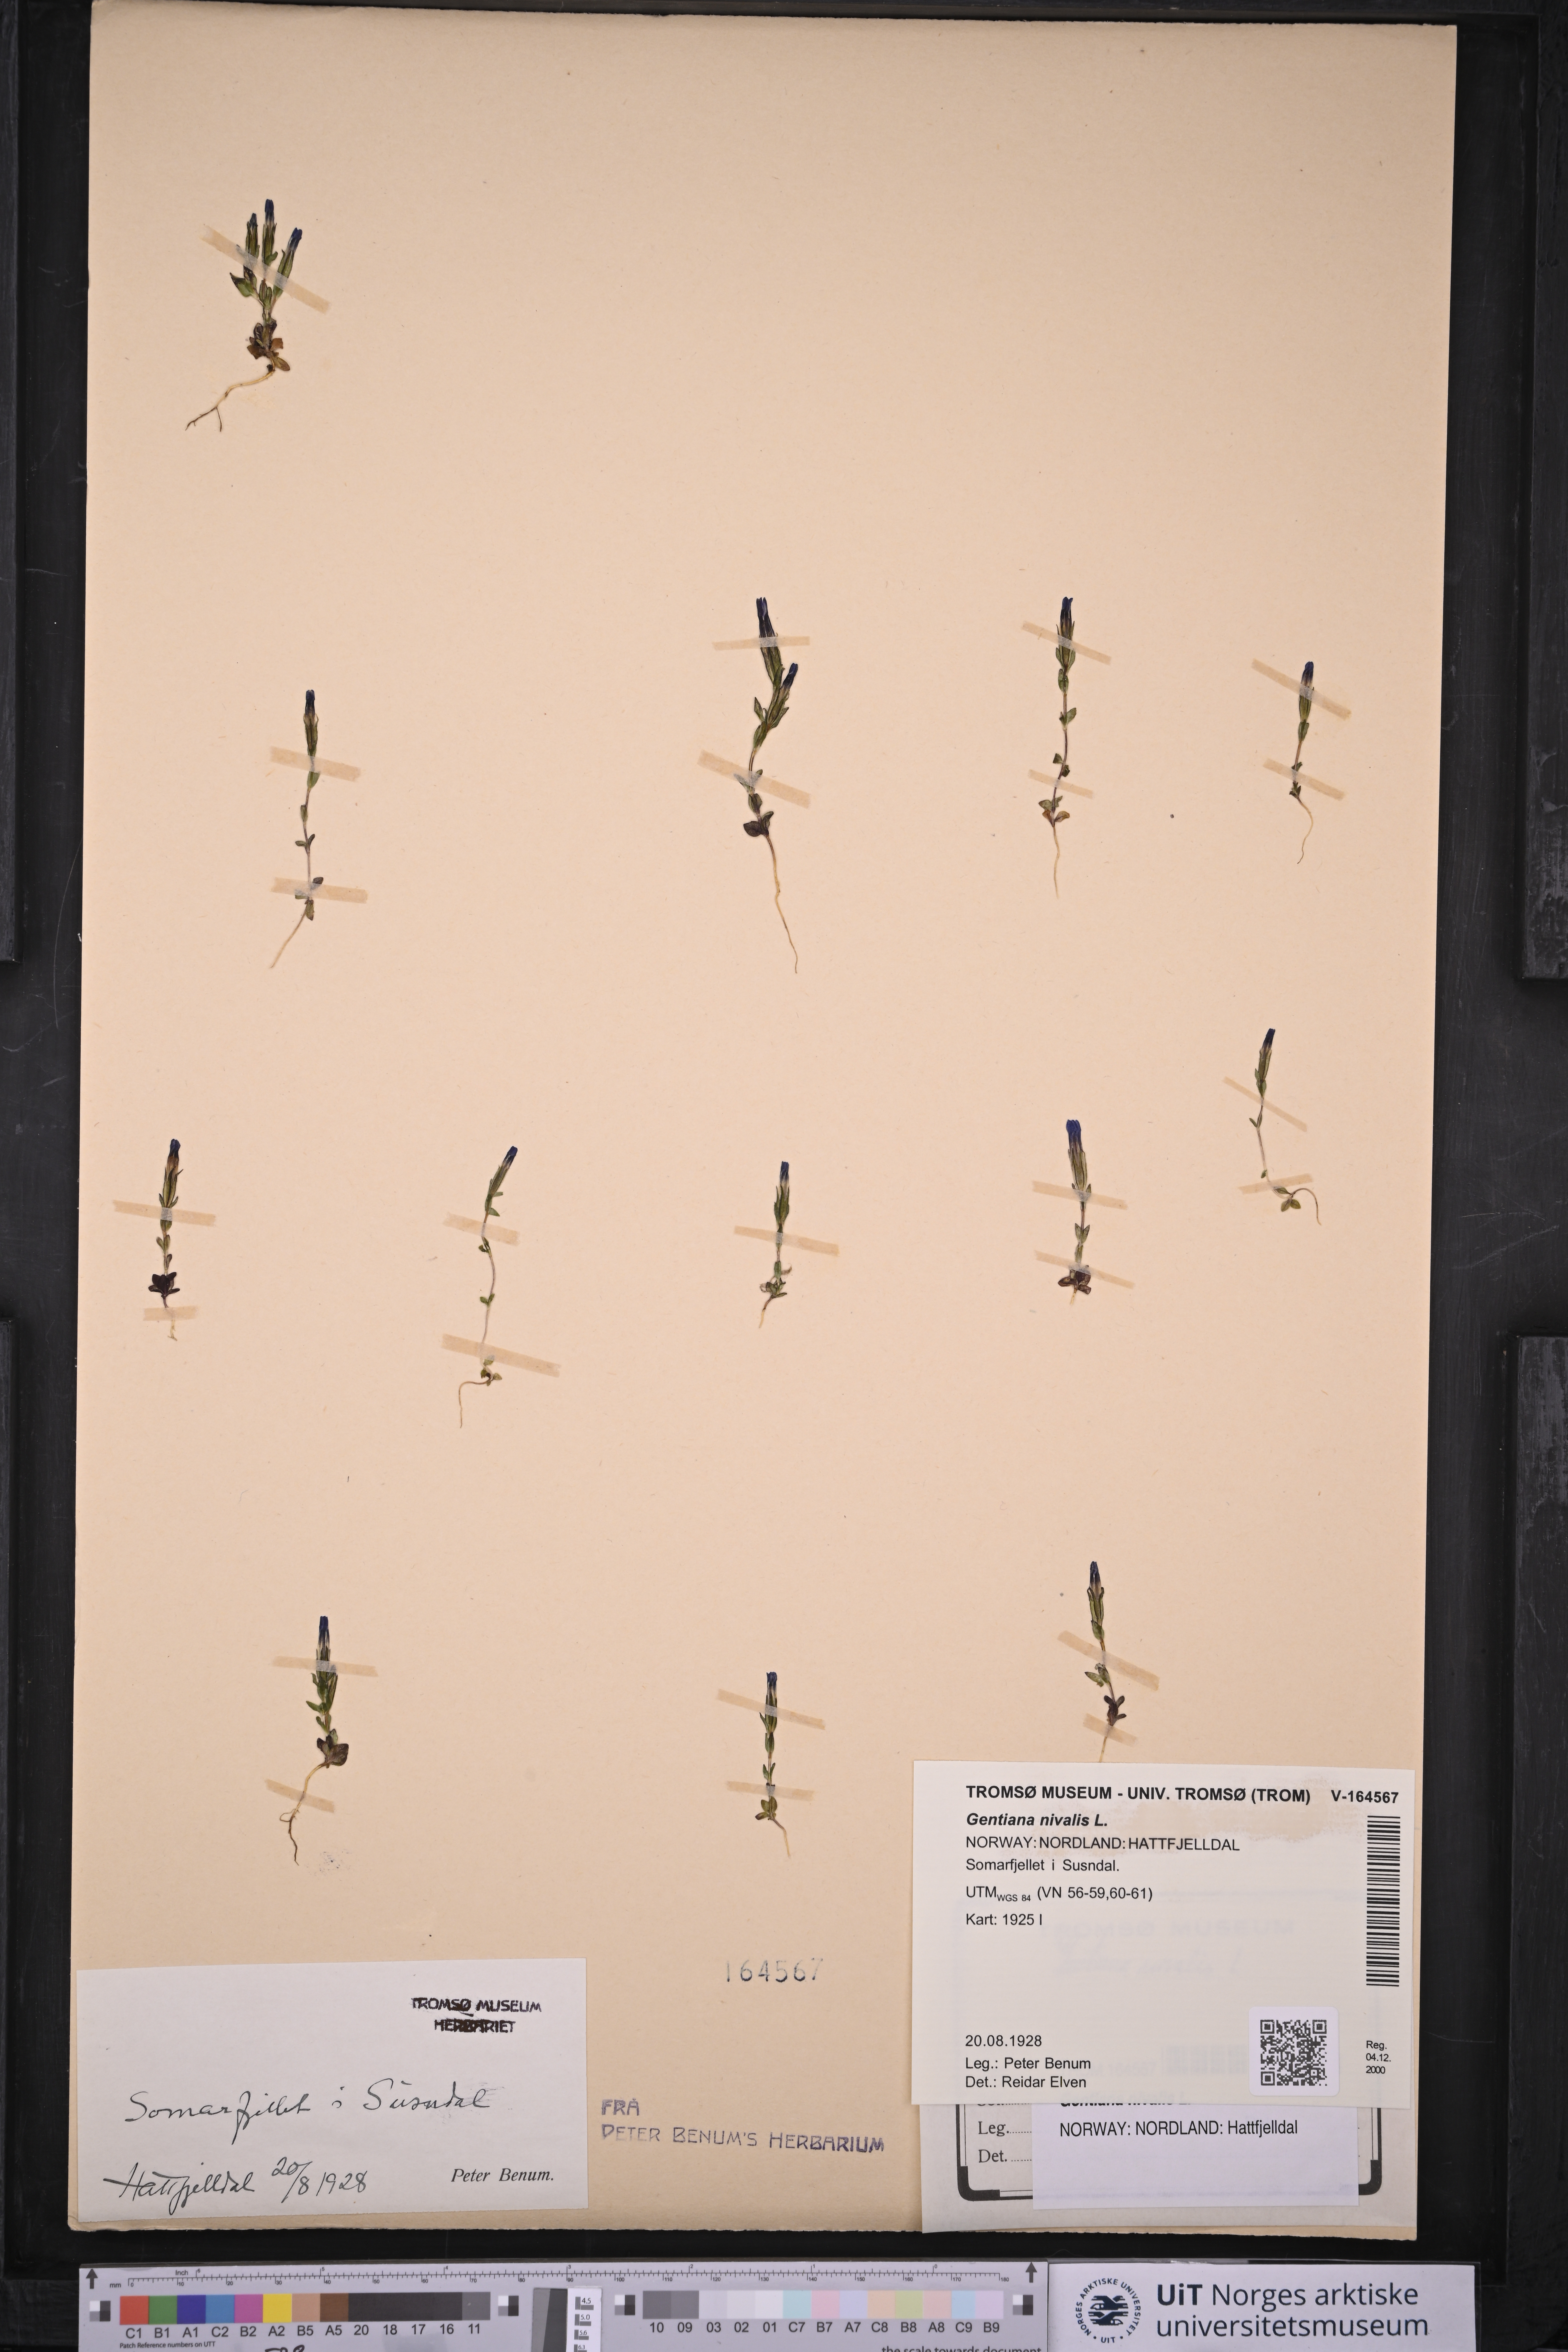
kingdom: Plantae
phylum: Tracheophyta
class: Magnoliopsida
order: Gentianales
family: Gentianaceae
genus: Gentiana
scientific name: Gentiana nivalis
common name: Alpine gentian
